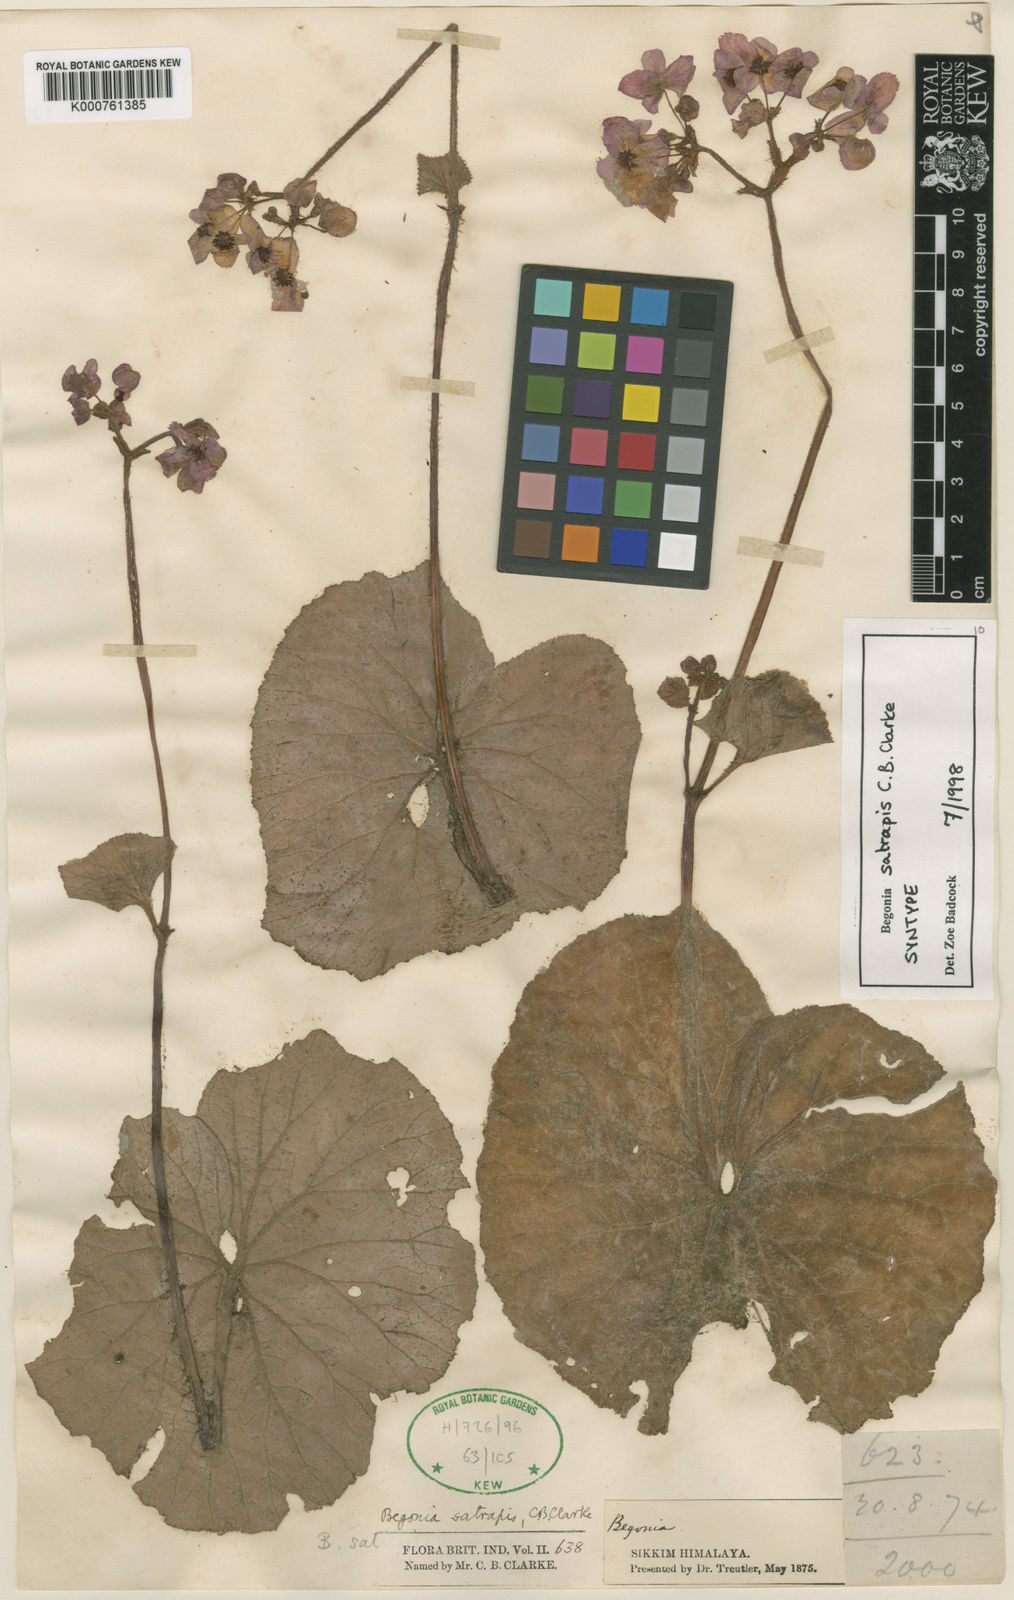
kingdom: Plantae
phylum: Tracheophyta
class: Magnoliopsida
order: Cucurbitales
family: Begoniaceae
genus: Begonia
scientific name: Begonia satrapis
